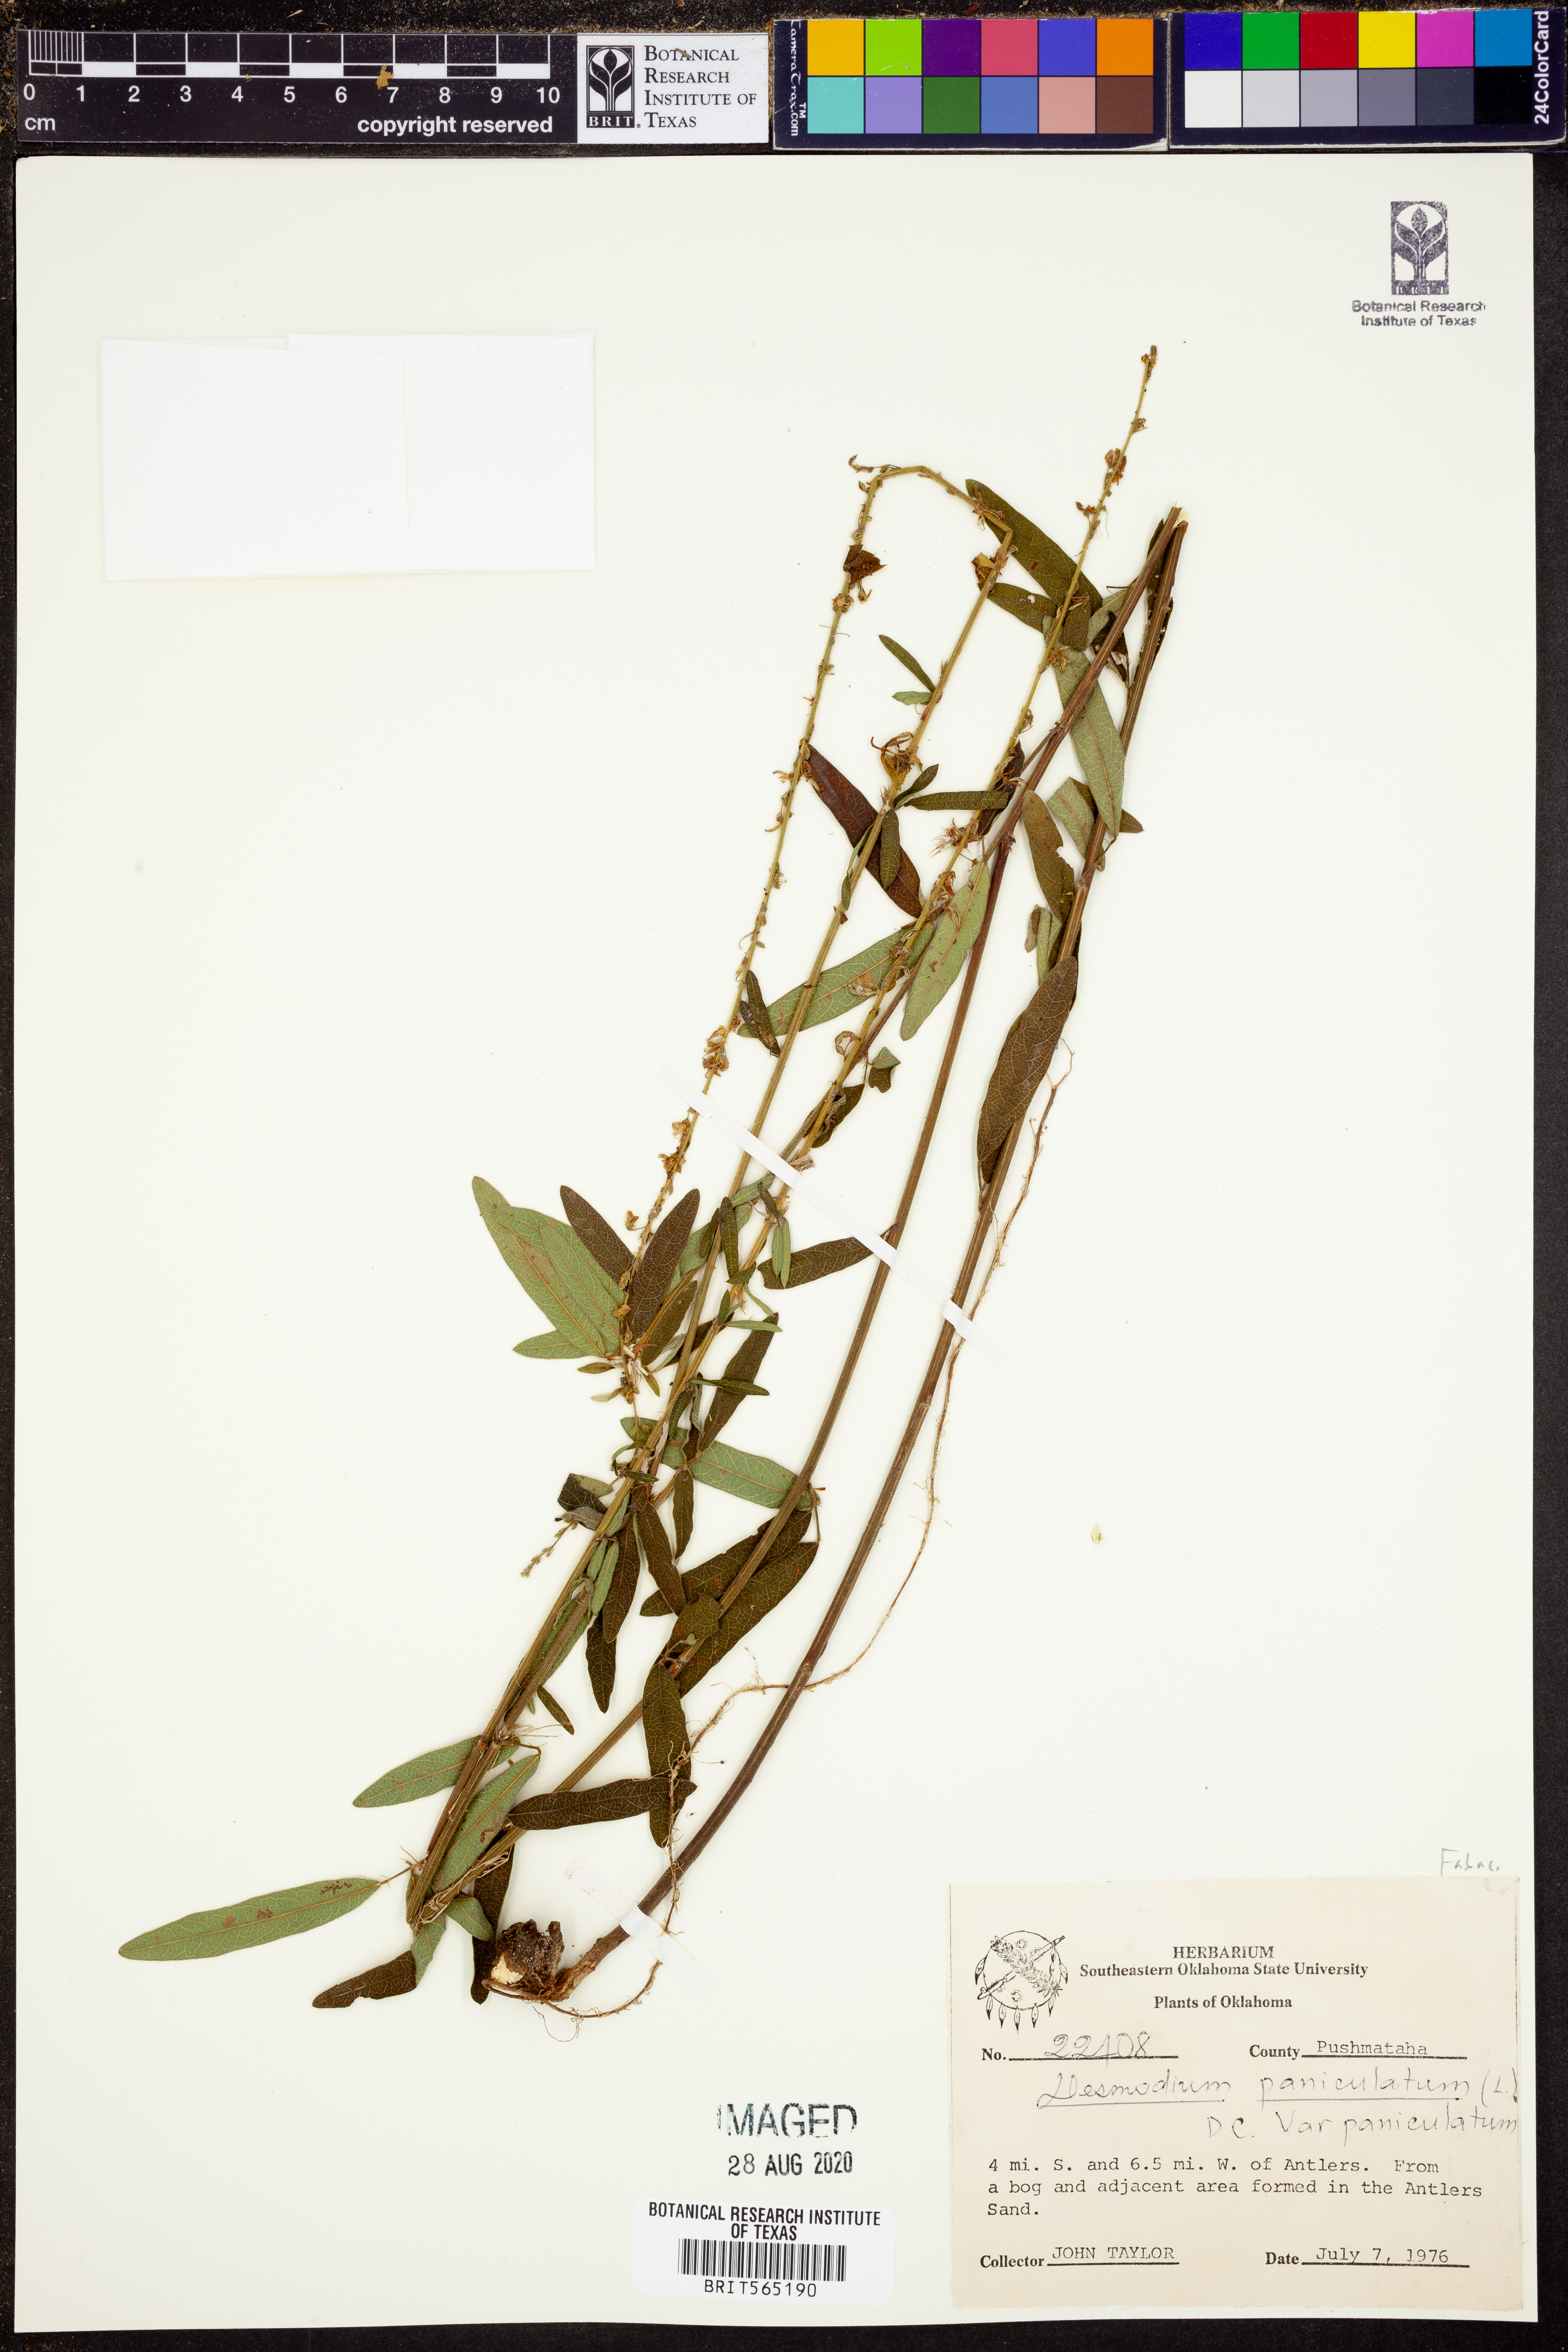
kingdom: Plantae
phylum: Tracheophyta
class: Magnoliopsida
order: Fabales
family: Fabaceae
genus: Desmodium
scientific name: Desmodium paniculatum
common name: Panicled tick-clover
